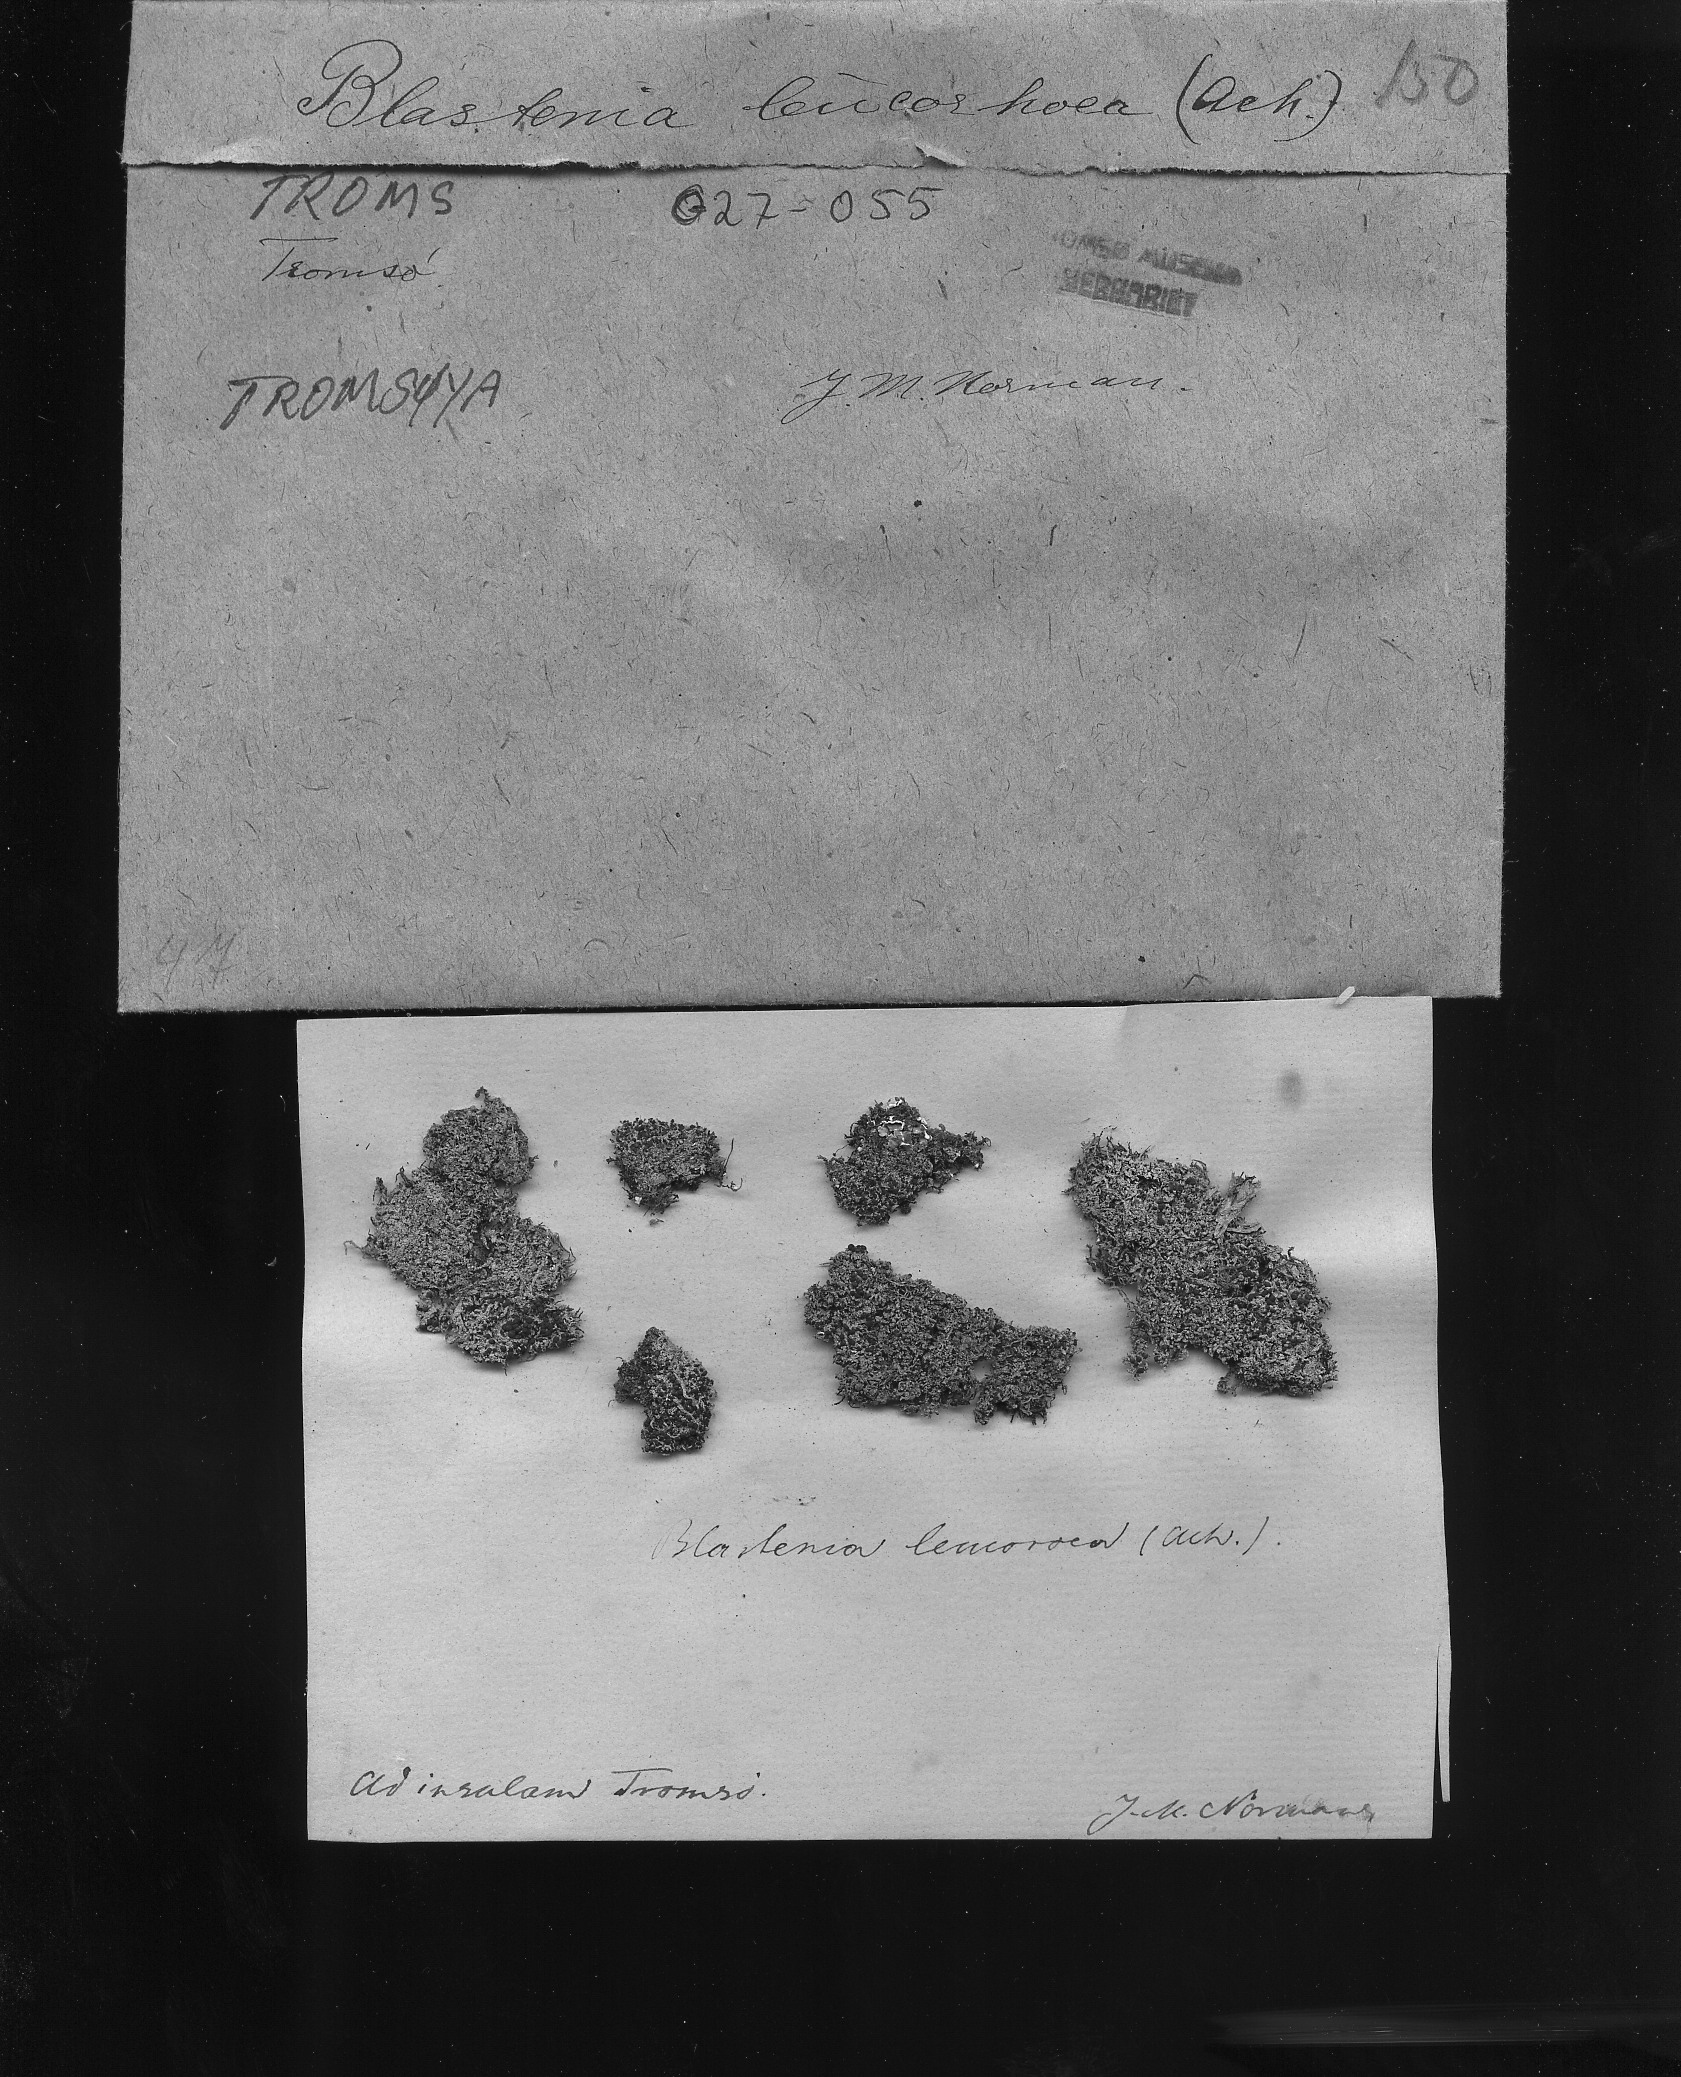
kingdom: Fungi
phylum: Ascomycota
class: Lecanoromycetes
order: Teloschistales
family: Teloschistaceae
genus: Bryoplaca
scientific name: Bryoplaca sinapisperma
